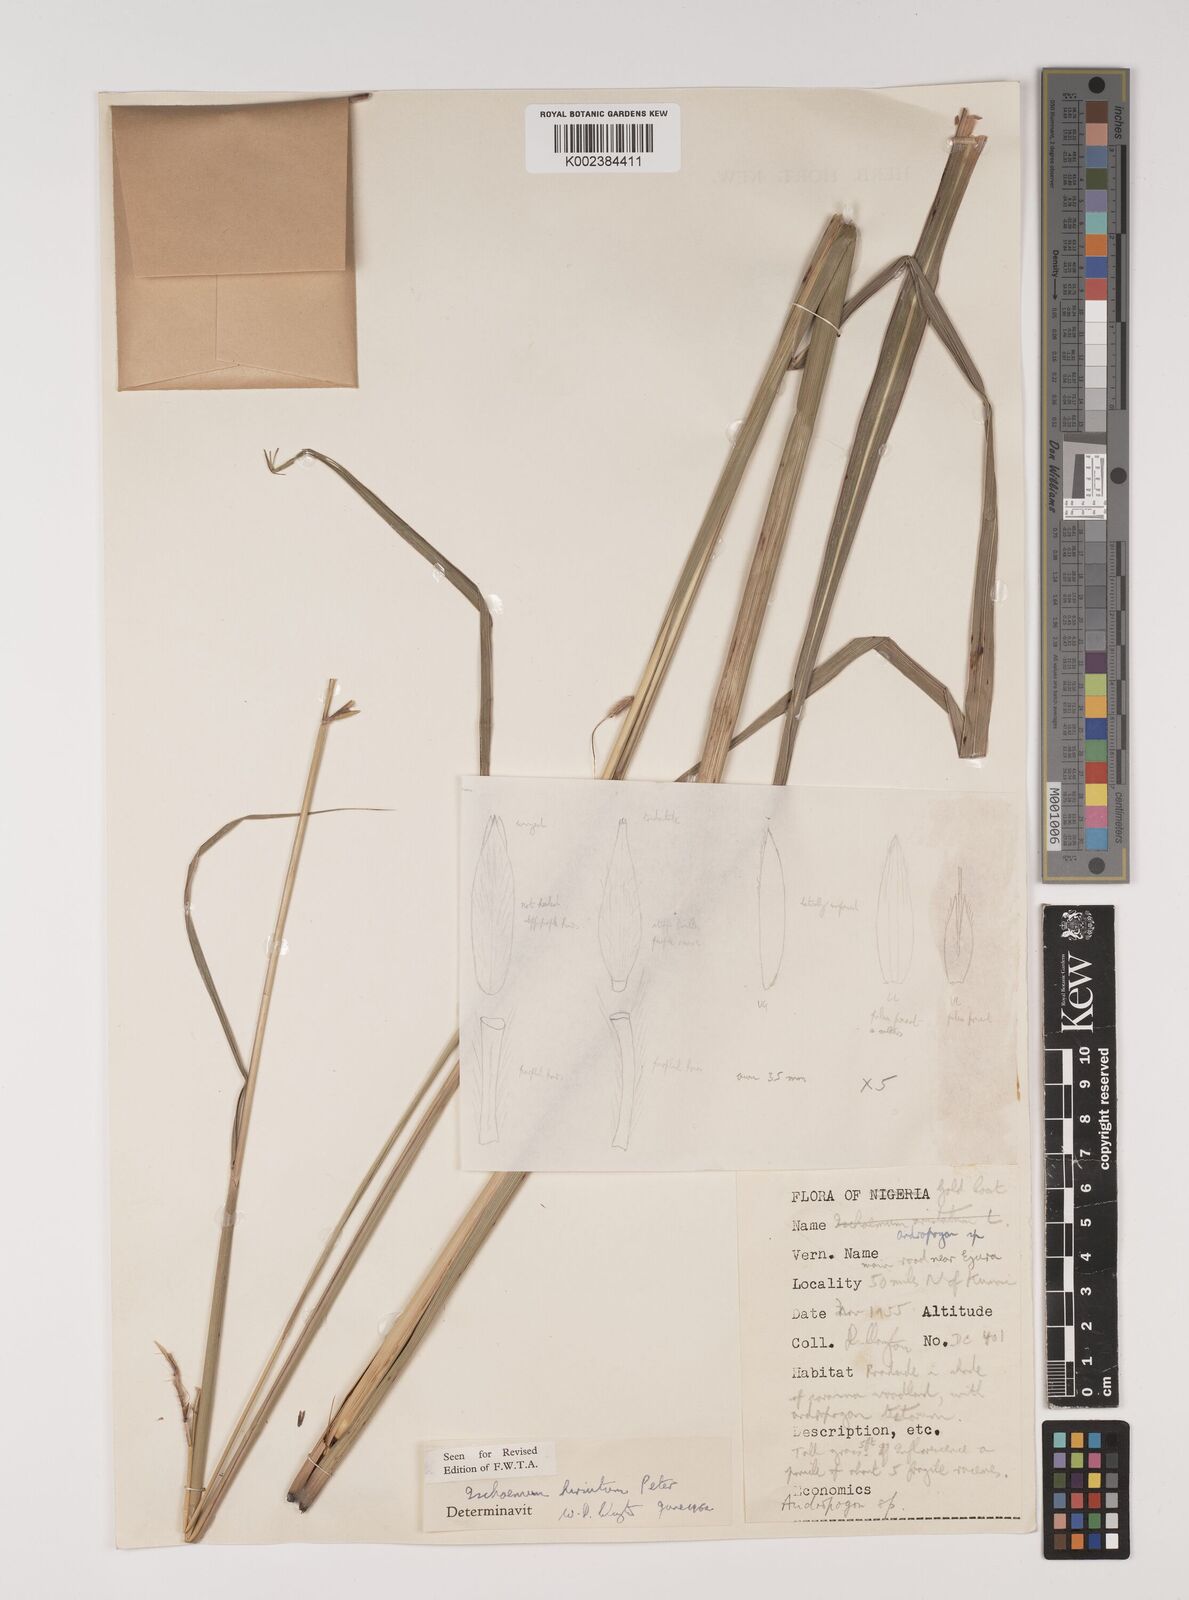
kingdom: Plantae
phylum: Tracheophyta
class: Liliopsida
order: Poales
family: Poaceae
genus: Rottboellia
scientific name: Rottboellia villosa
